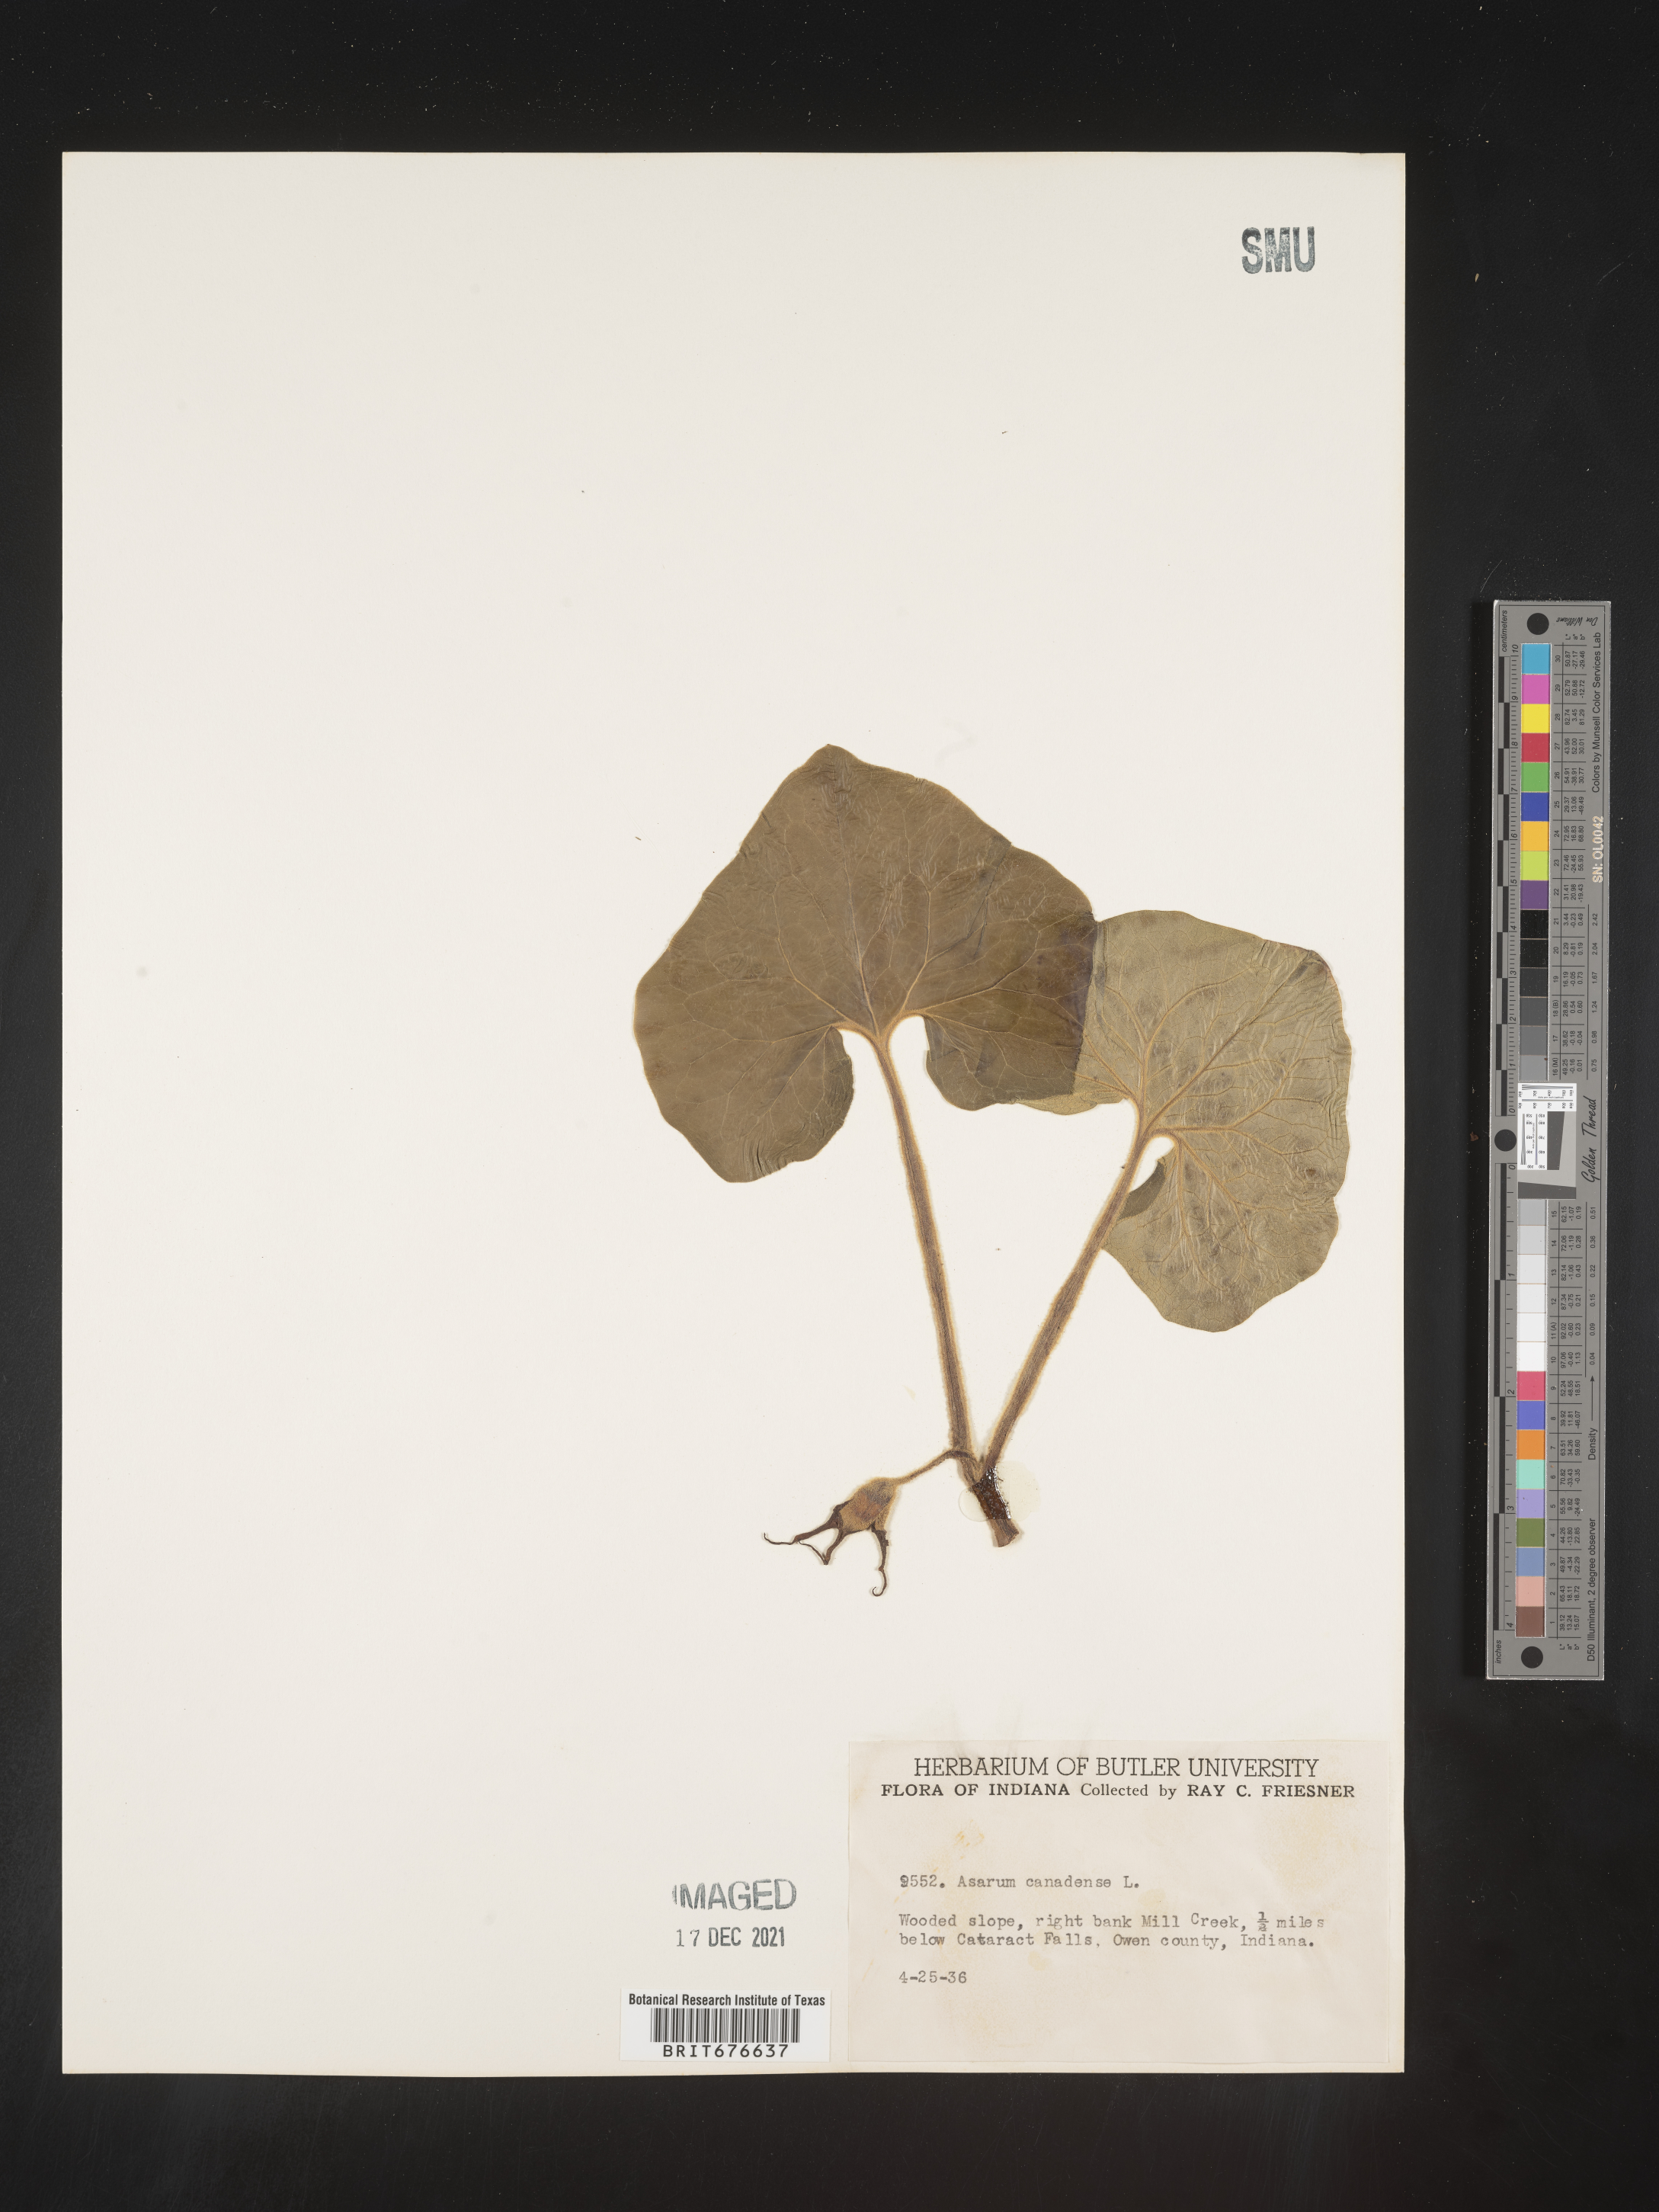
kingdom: Plantae
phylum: Tracheophyta
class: Magnoliopsida
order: Piperales
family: Aristolochiaceae
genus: Asarum
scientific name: Asarum canadense
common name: Wild ginger
